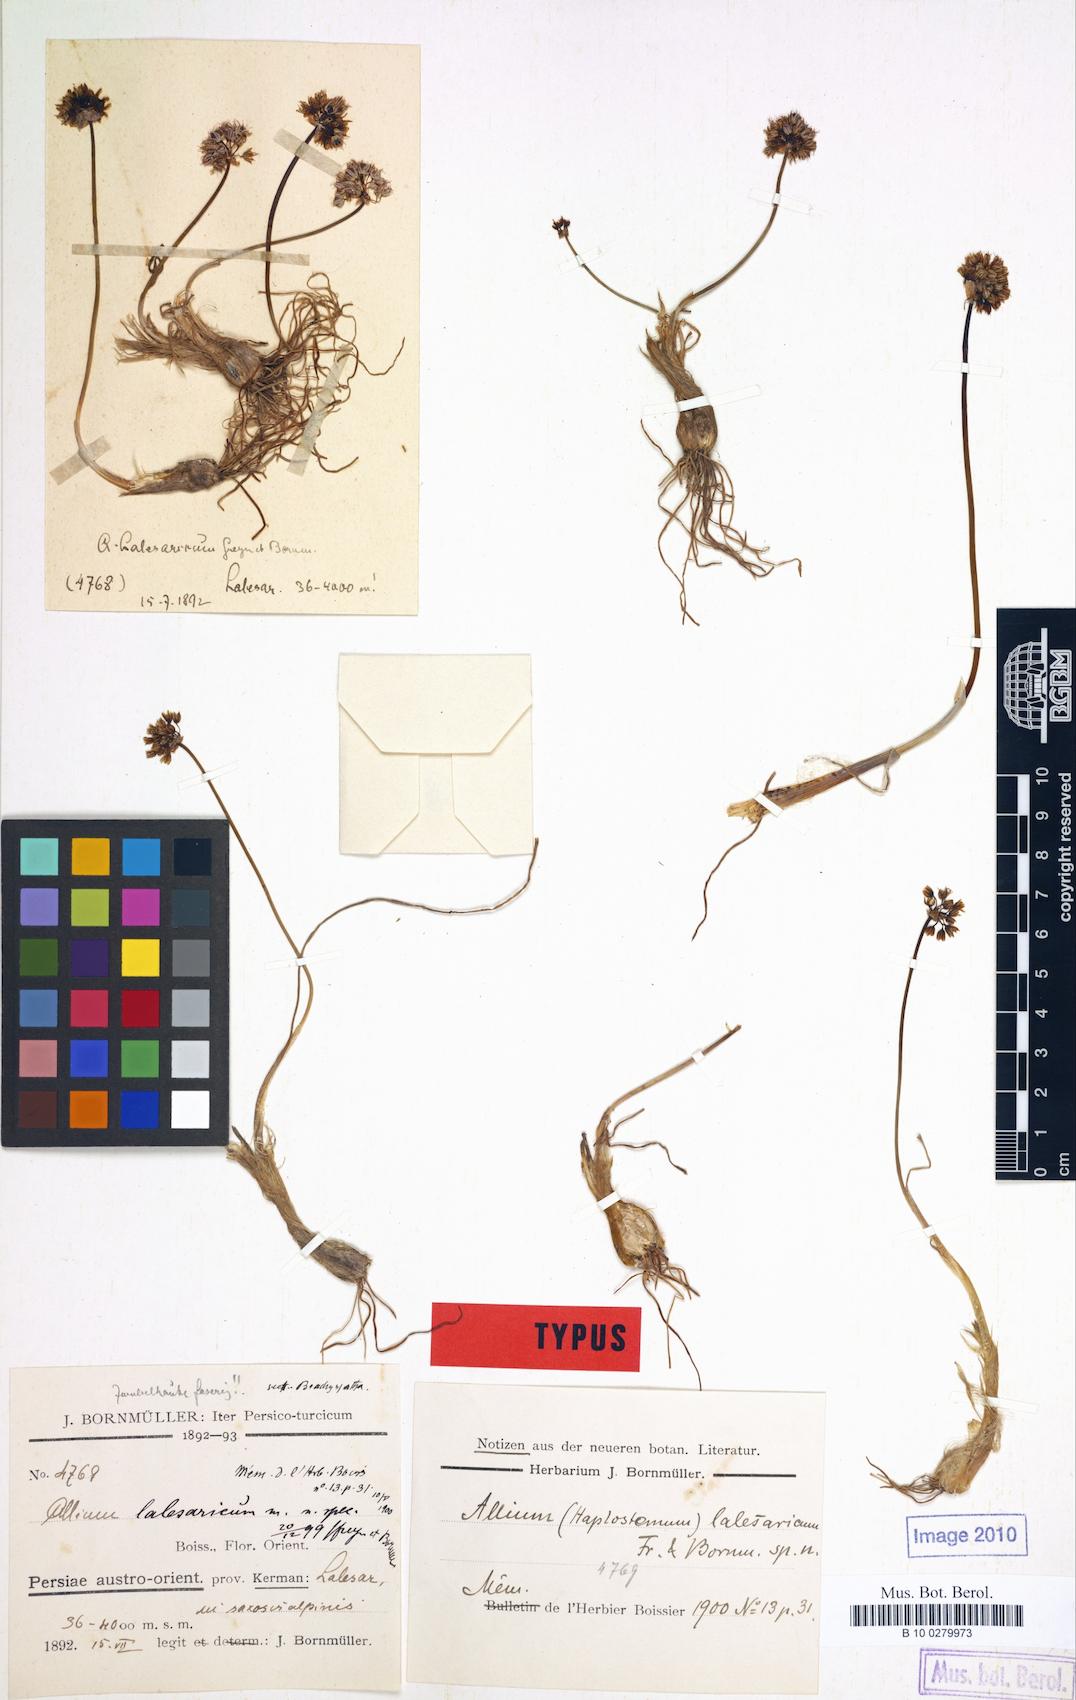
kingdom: Plantae
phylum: Tracheophyta
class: Liliopsida
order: Asparagales
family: Amaryllidaceae
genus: Allium
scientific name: Allium lalesaricum
